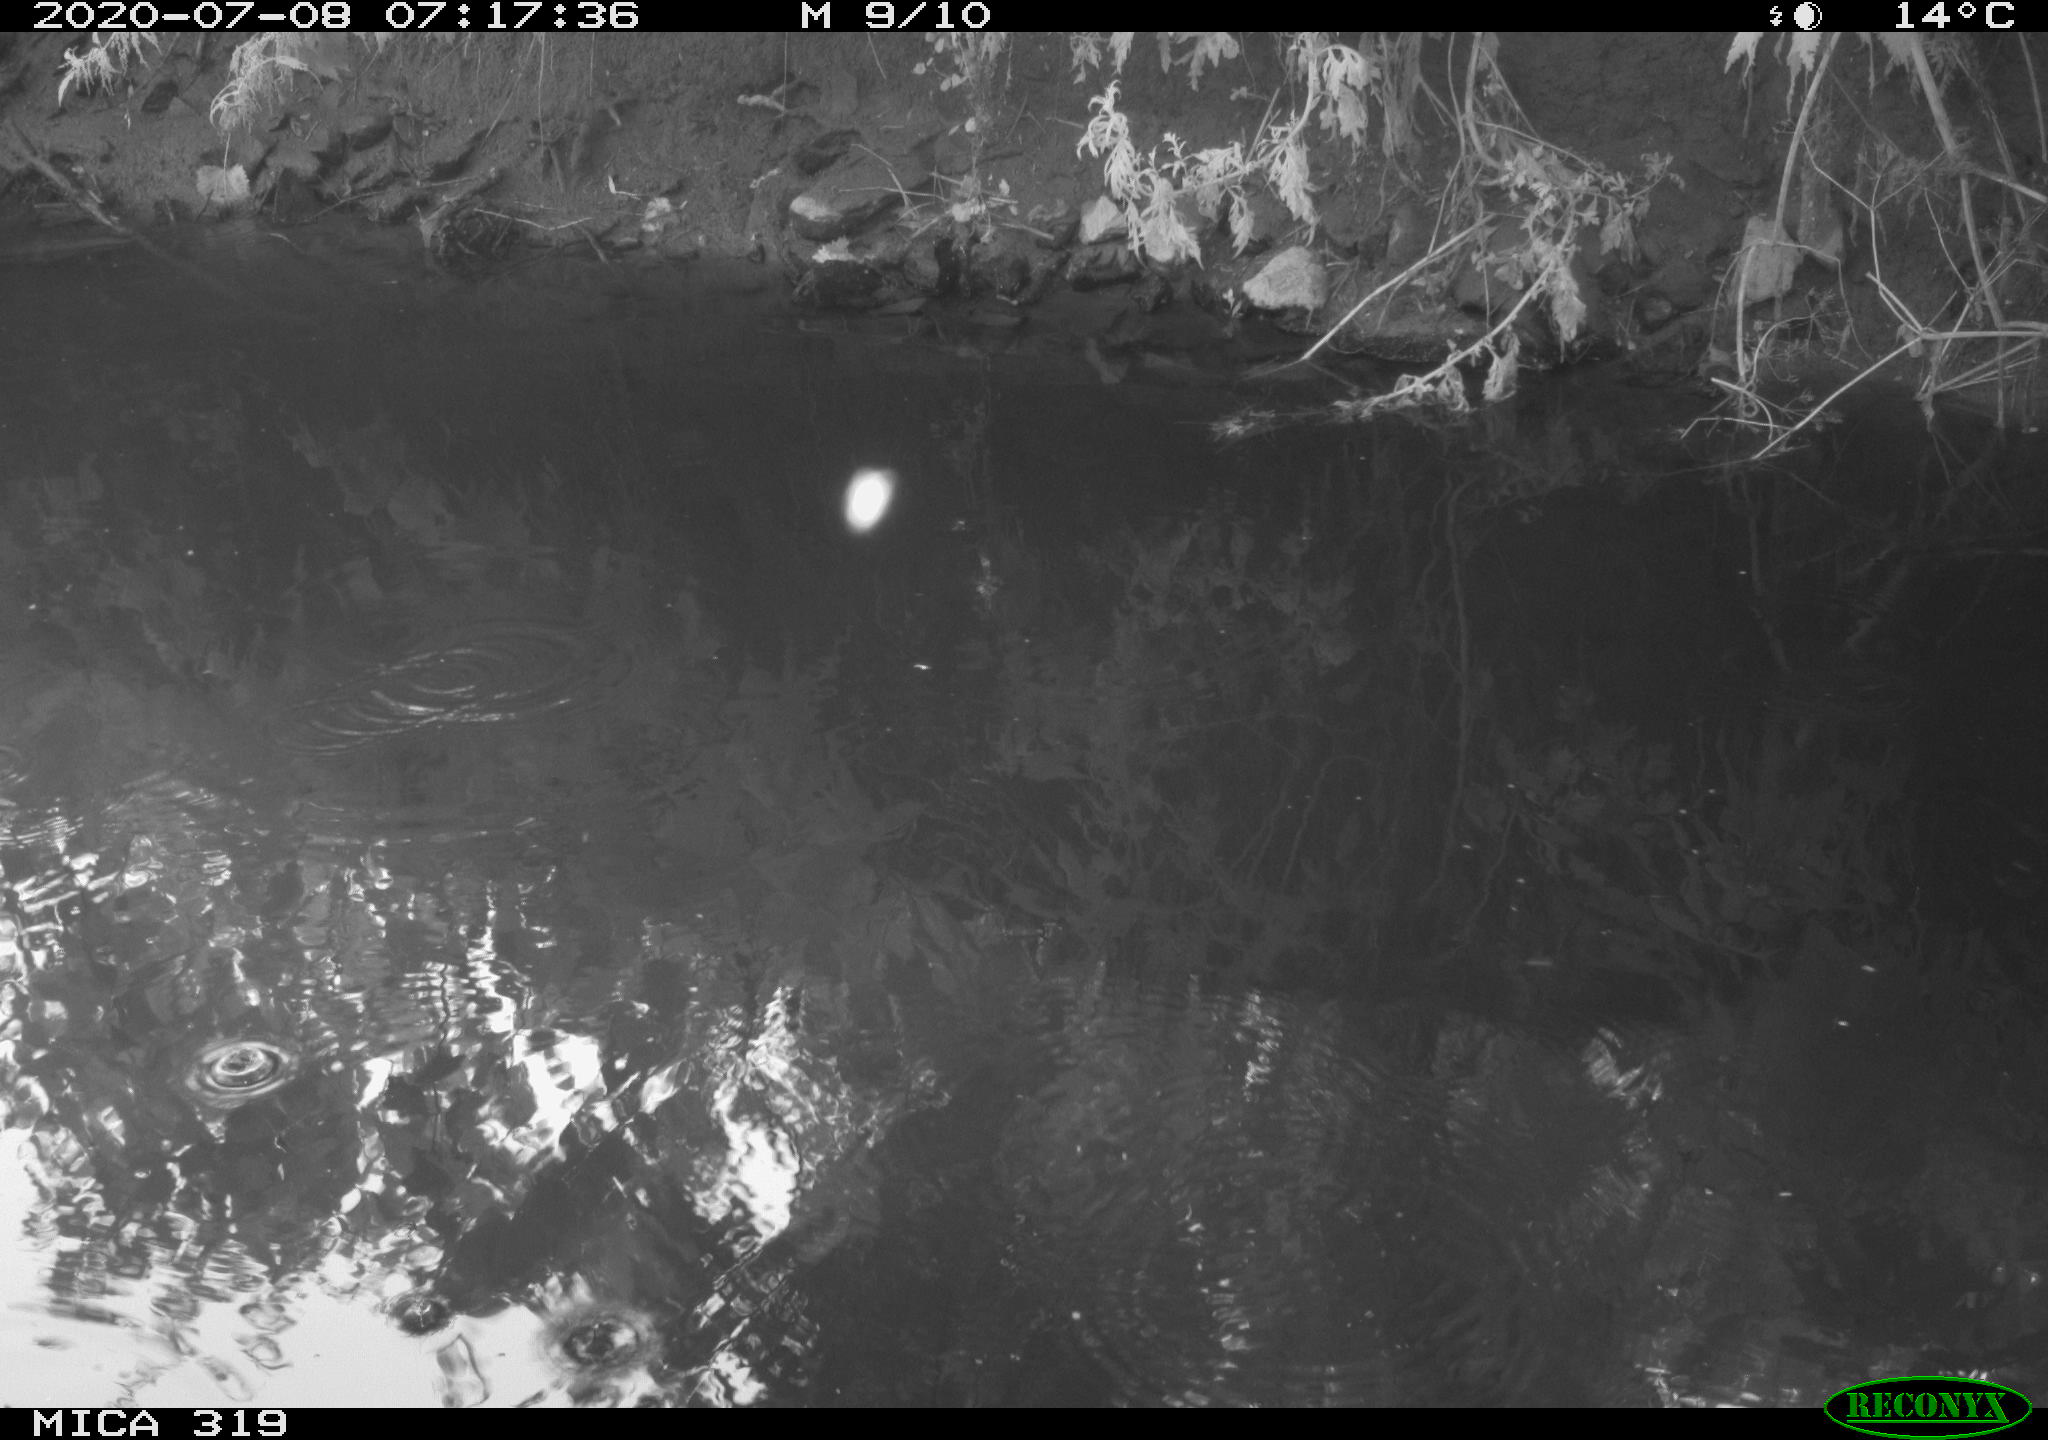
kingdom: Animalia
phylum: Chordata
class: Aves
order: Anseriformes
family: Anatidae
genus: Anas
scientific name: Anas platyrhynchos
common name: Mallard
